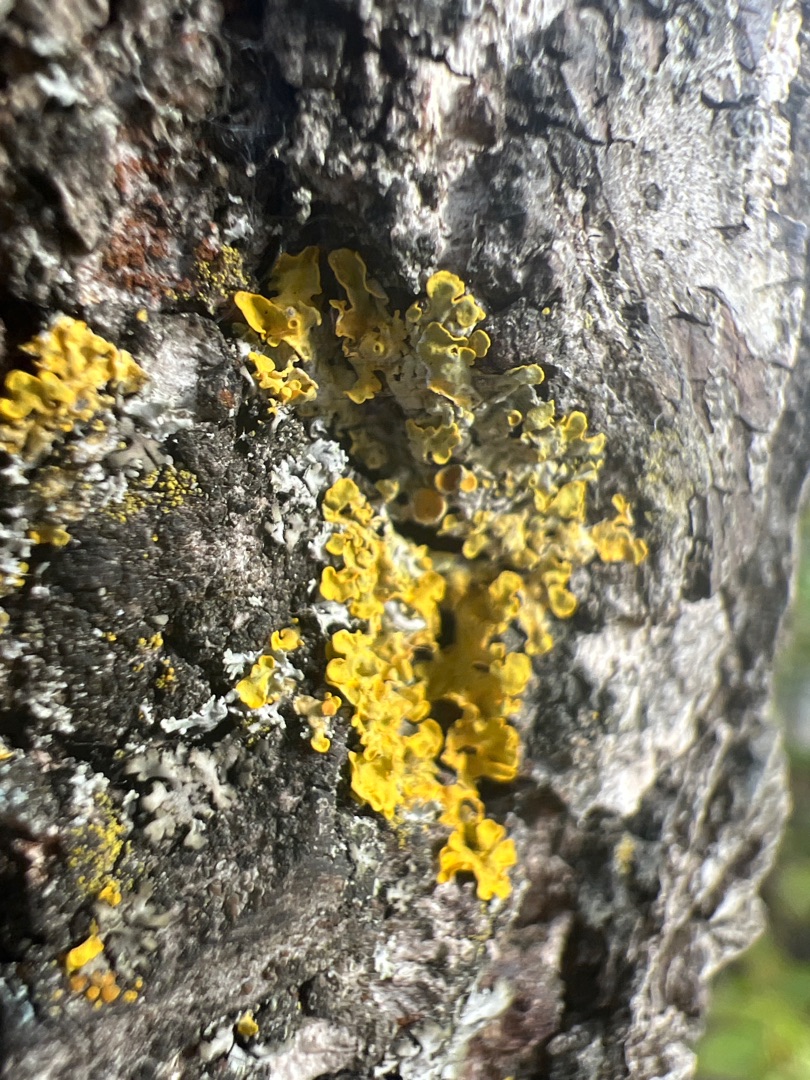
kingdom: Fungi
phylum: Ascomycota
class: Lecanoromycetes
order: Teloschistales
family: Teloschistaceae
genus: Xanthoria
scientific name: Xanthoria parietina
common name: Almindelig væggelav
